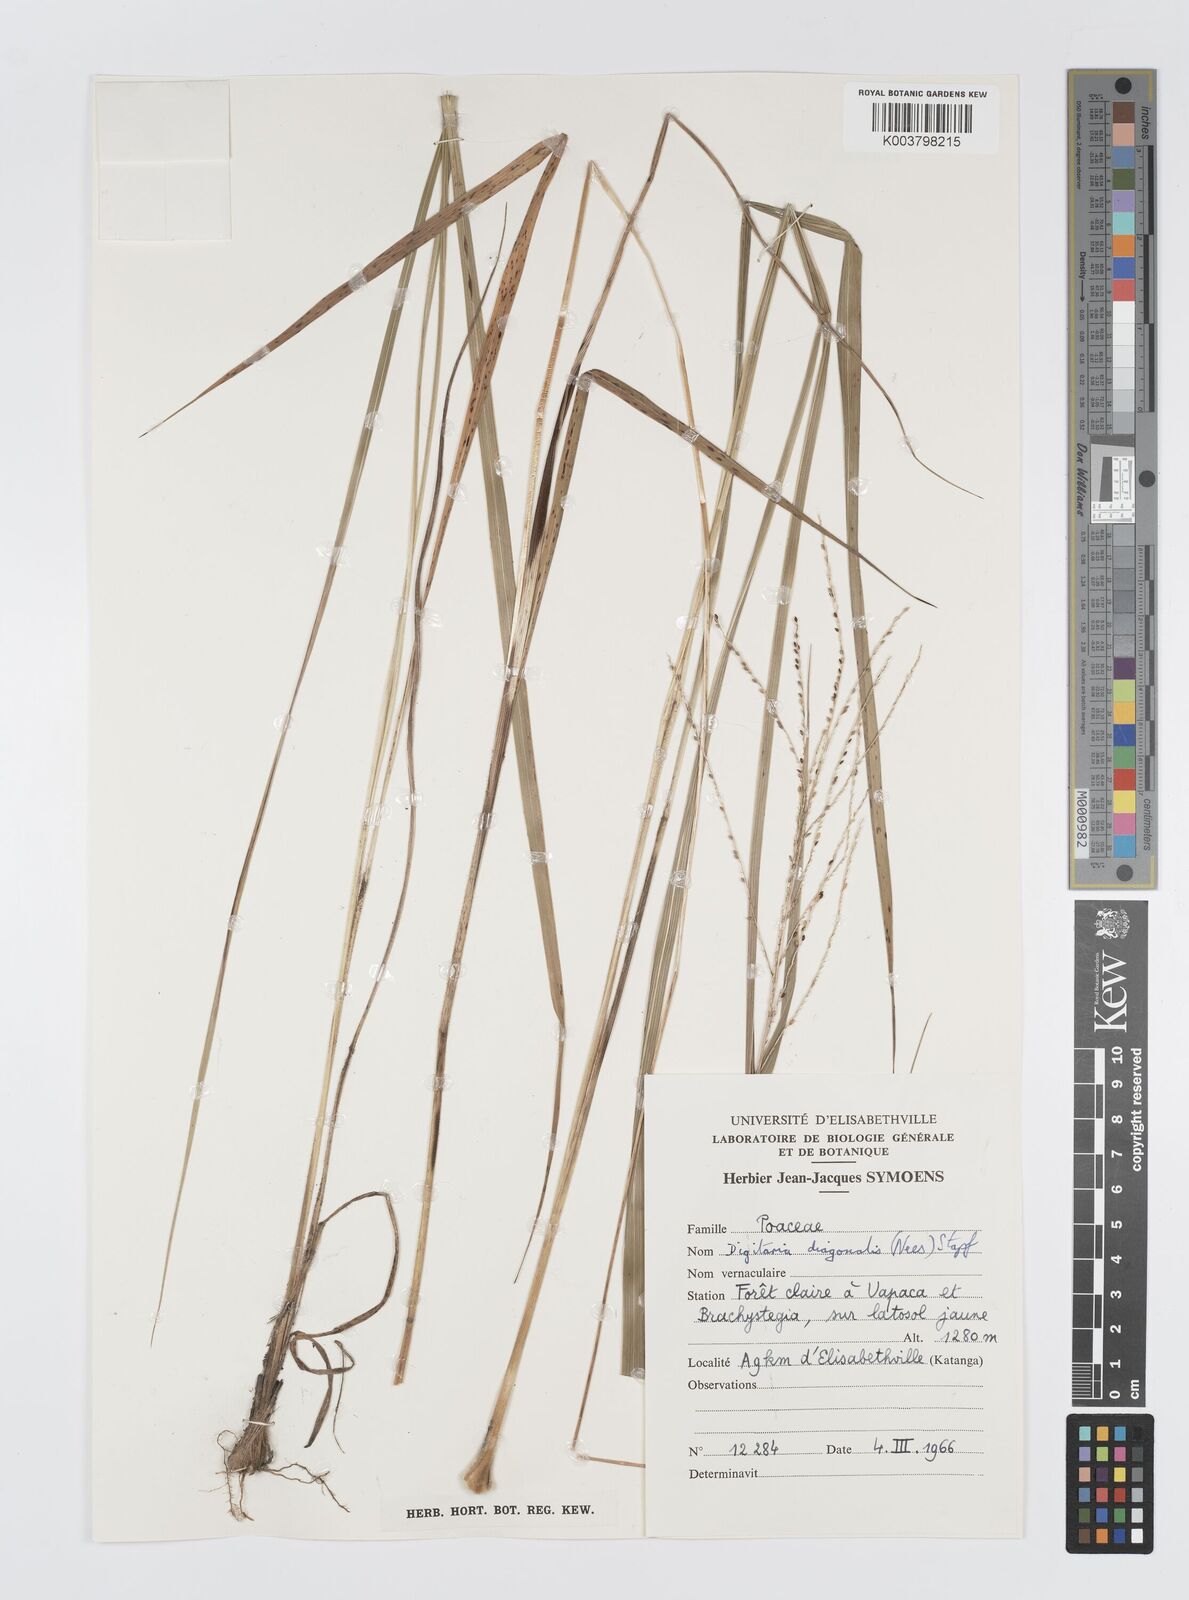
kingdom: Plantae
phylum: Tracheophyta
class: Liliopsida
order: Poales
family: Poaceae
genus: Digitaria
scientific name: Digitaria diagonalis
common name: Brown-seed finger grass
